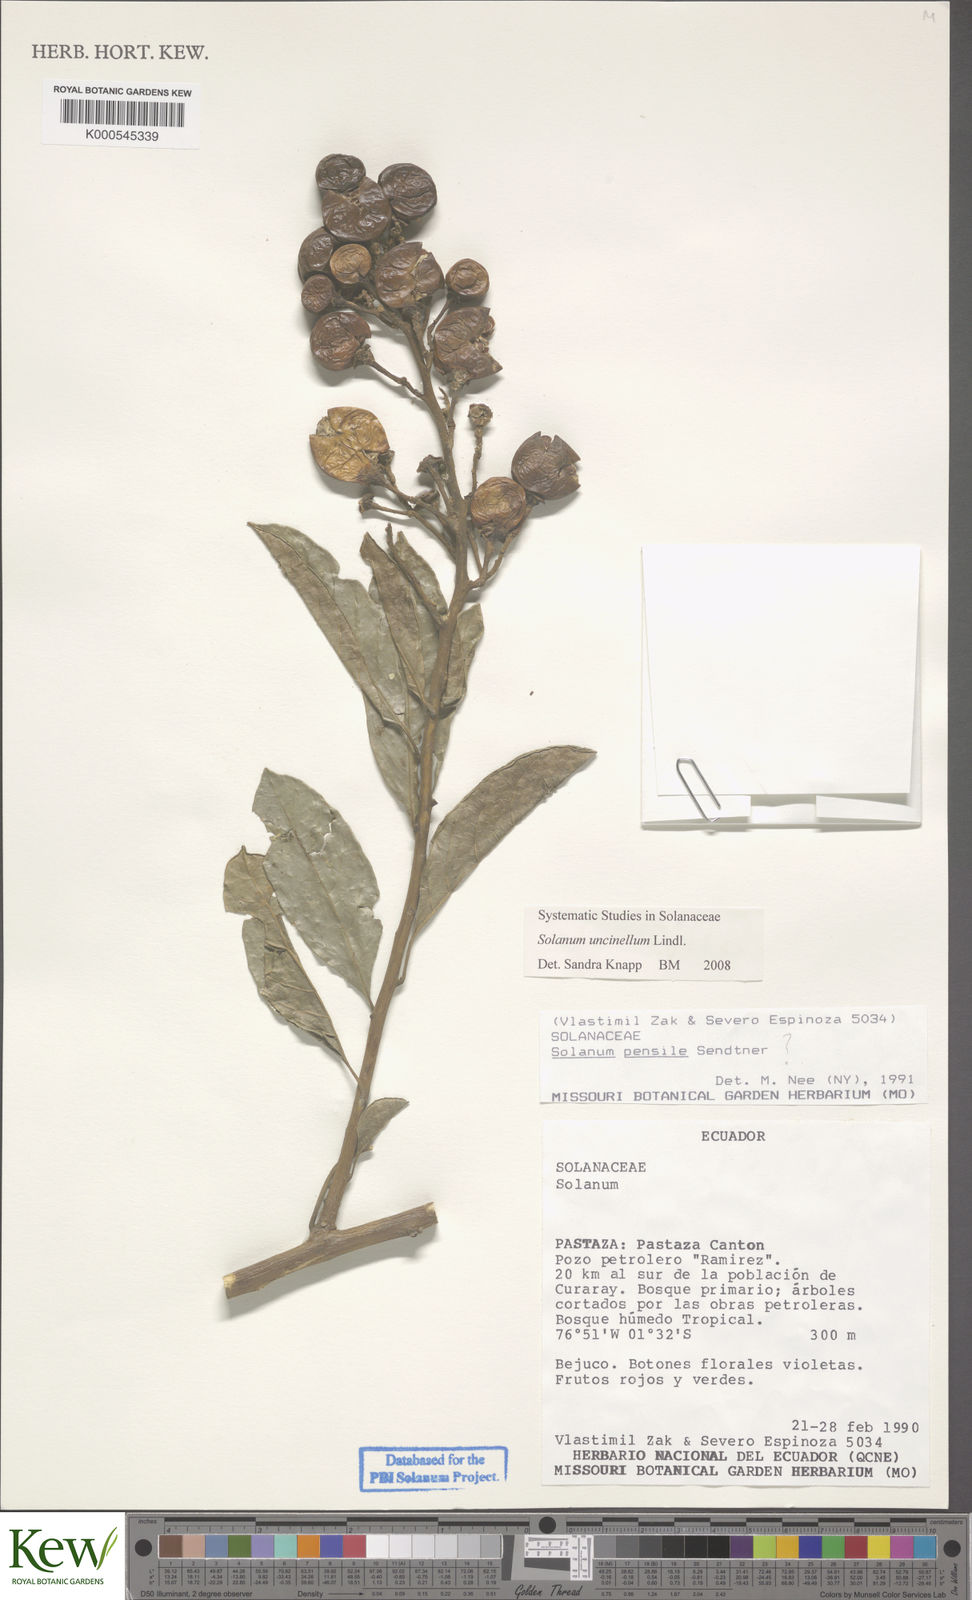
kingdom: Plantae
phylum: Tracheophyta
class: Magnoliopsida
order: Solanales
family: Solanaceae
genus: Solanum
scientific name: Solanum uncinellum
